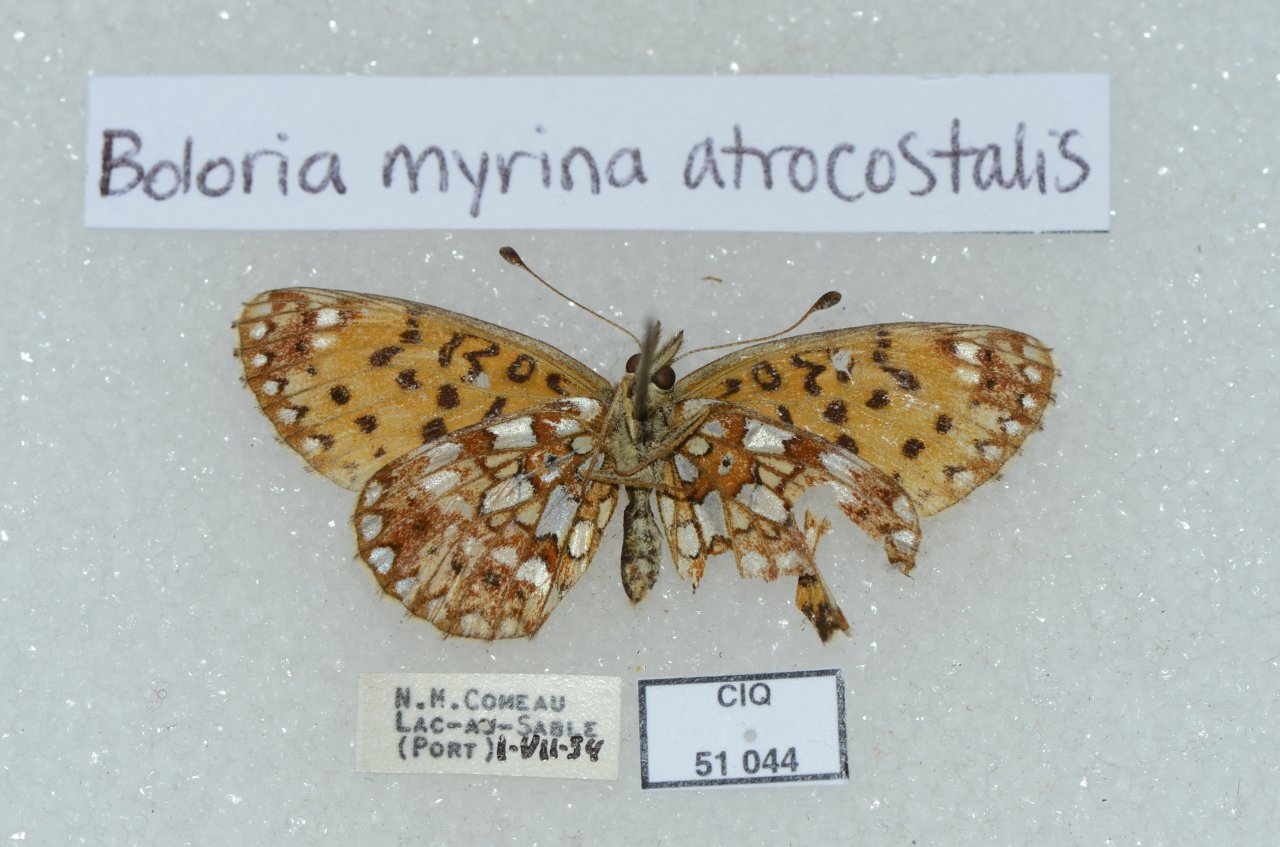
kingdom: Animalia
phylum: Arthropoda
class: Insecta
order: Lepidoptera
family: Nymphalidae
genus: Boloria
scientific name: Boloria selene
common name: Silver-bordered Fritillary
